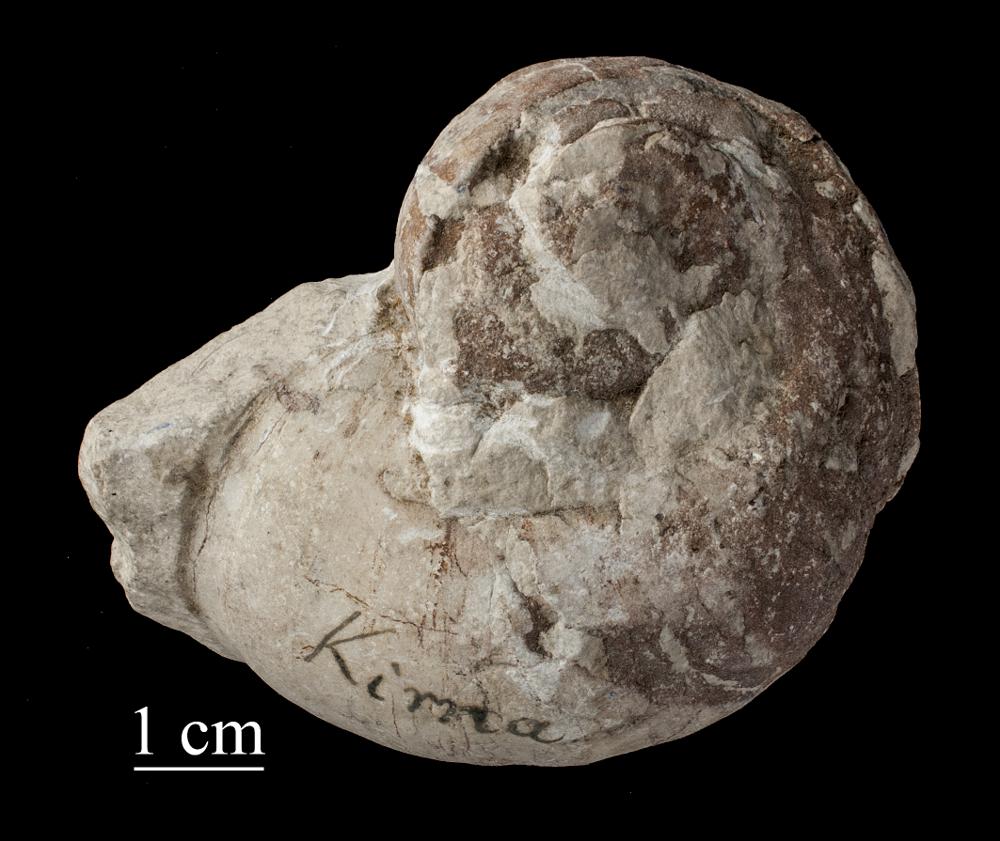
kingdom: Animalia
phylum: Mollusca
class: Gastropoda
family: Holopeidae
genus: Holopea
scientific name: Holopea ampullacea
